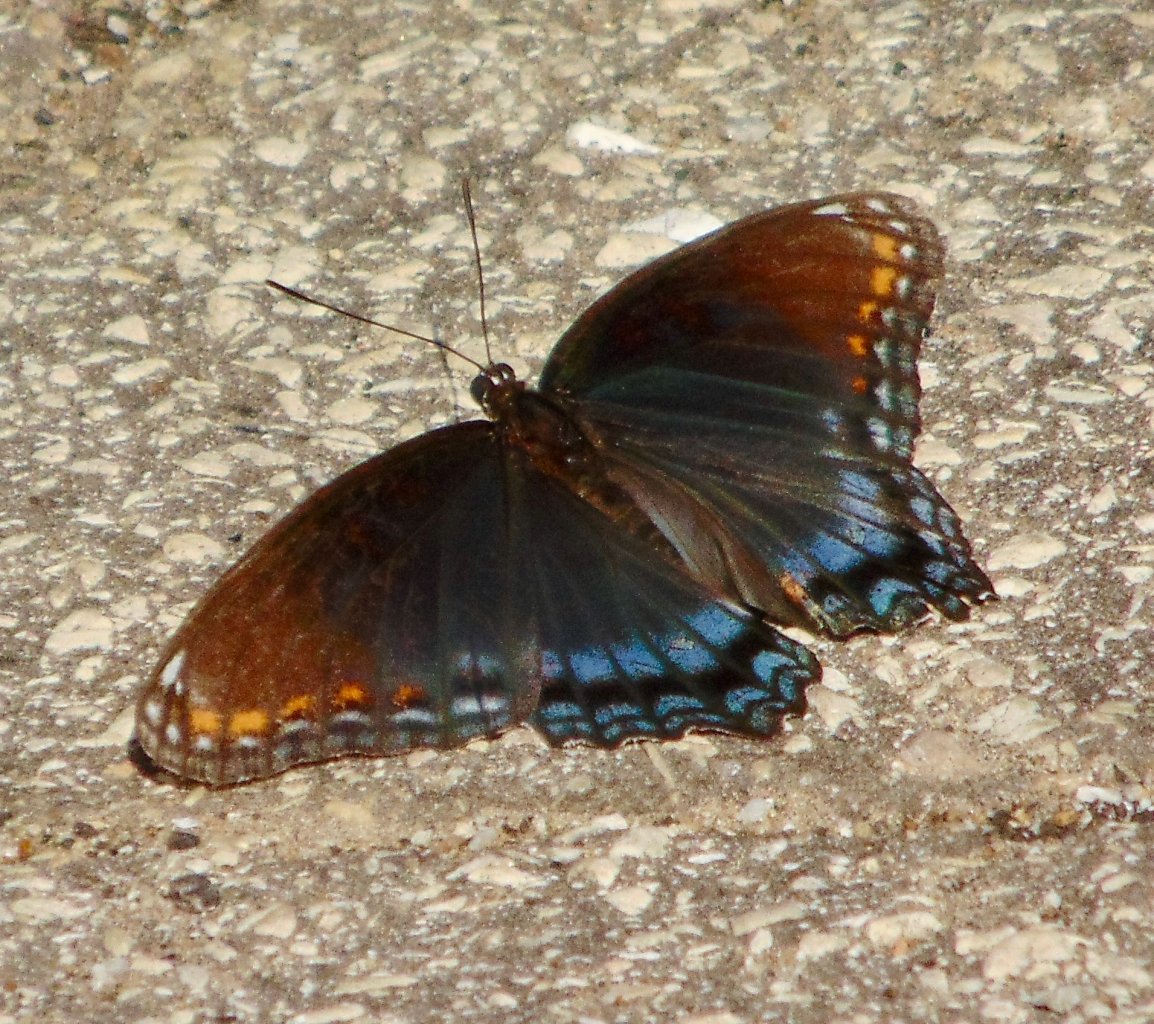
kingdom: Animalia
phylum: Arthropoda
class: Insecta
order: Lepidoptera
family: Nymphalidae
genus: Limenitis
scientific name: Limenitis astyanax
